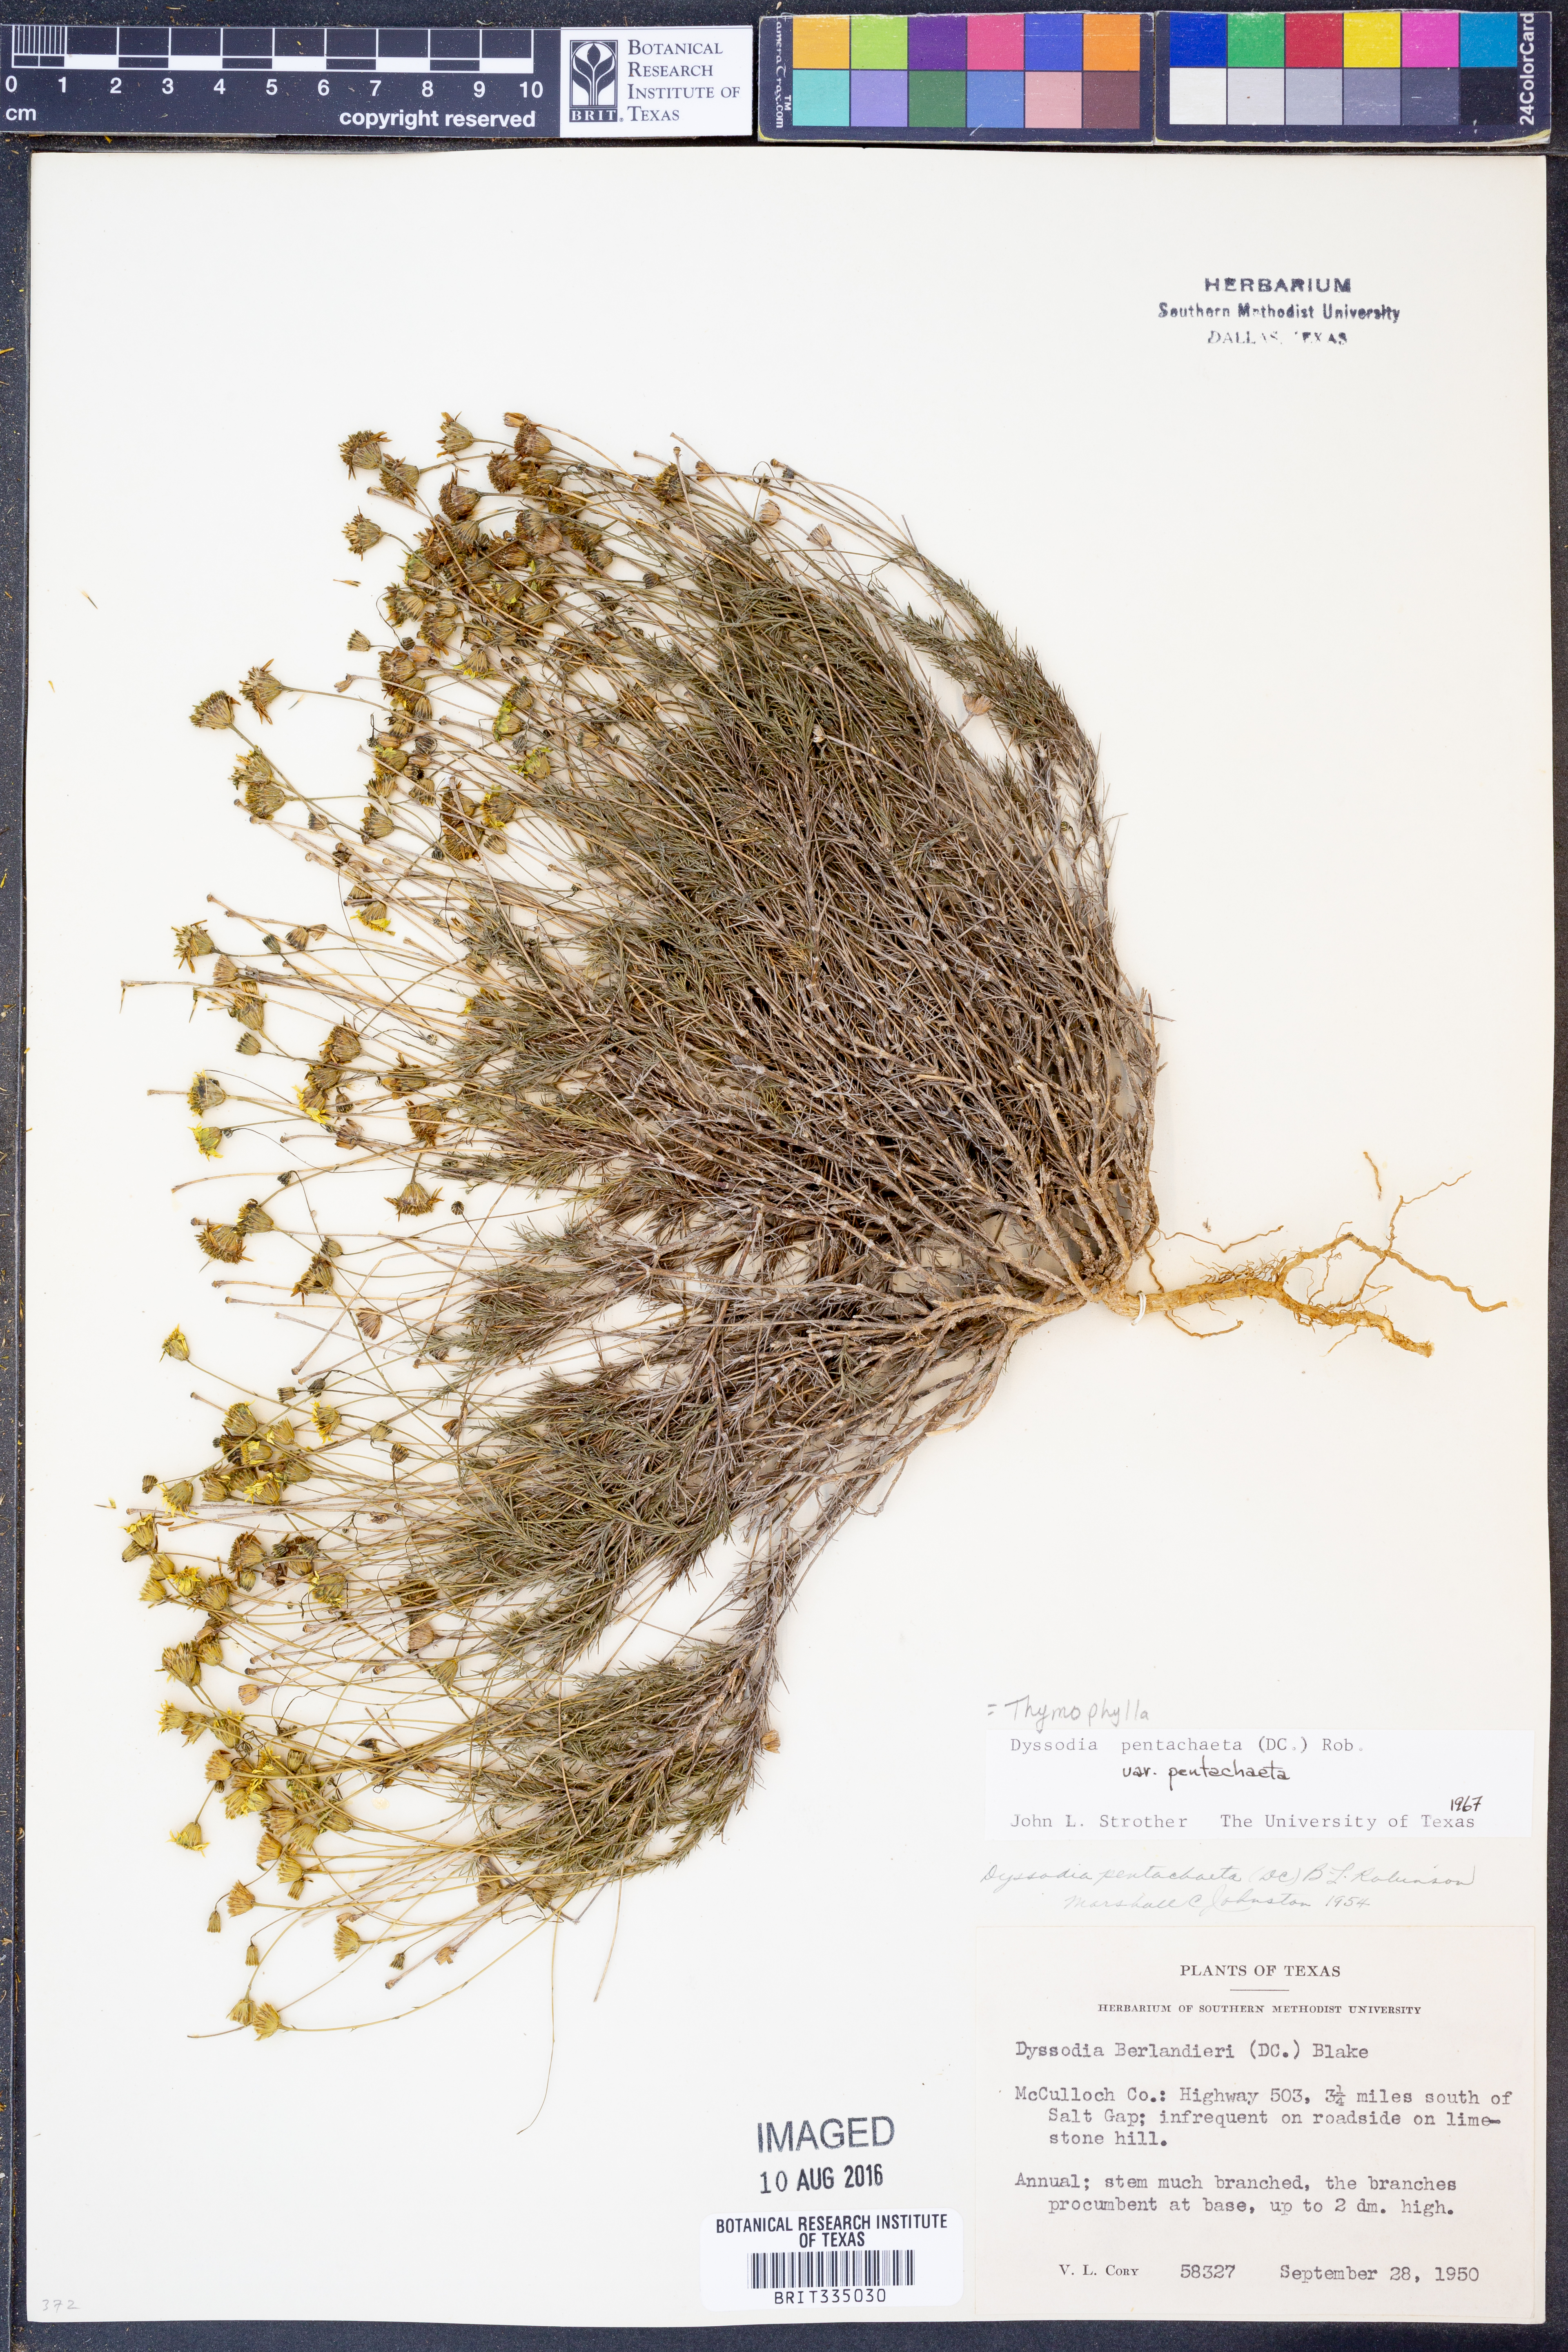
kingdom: Plantae
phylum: Tracheophyta
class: Magnoliopsida
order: Asterales
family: Asteraceae
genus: Thymophylla
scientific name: Thymophylla pentachaeta
